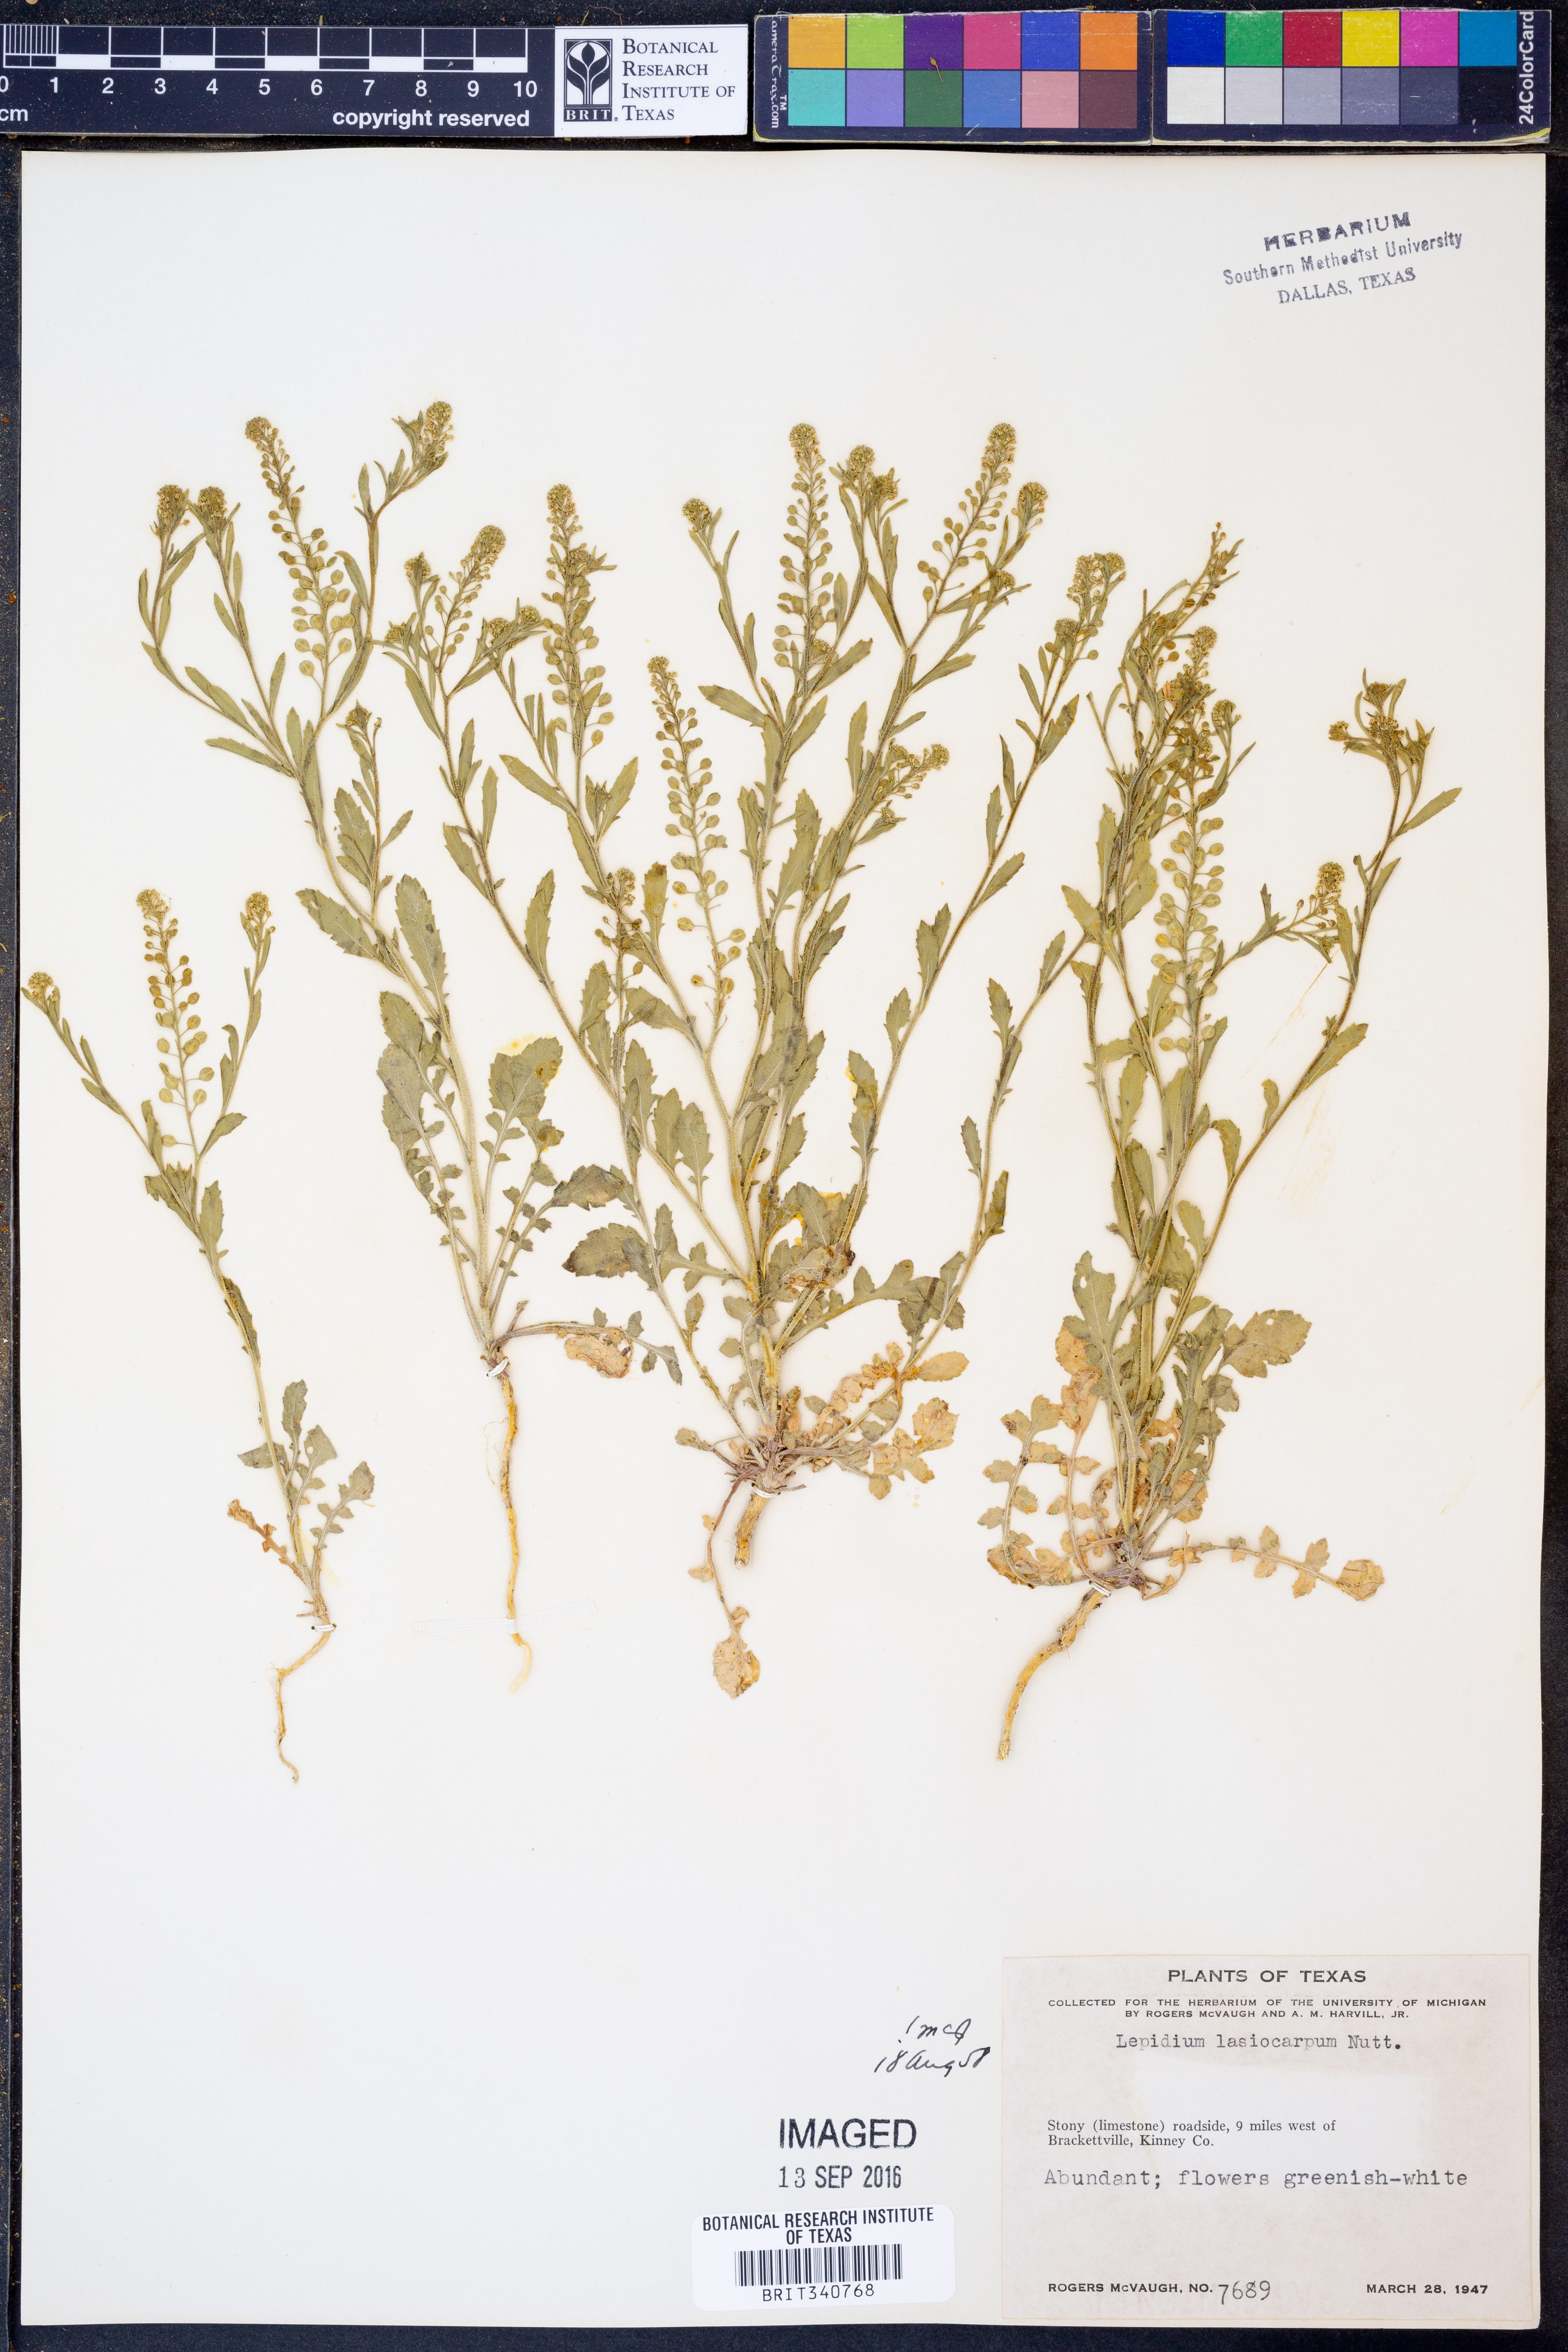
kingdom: Plantae
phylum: Tracheophyta
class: Magnoliopsida
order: Brassicales
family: Brassicaceae
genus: Lepidium
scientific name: Lepidium lasiocarpum
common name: Hairy-pod pepperwort
